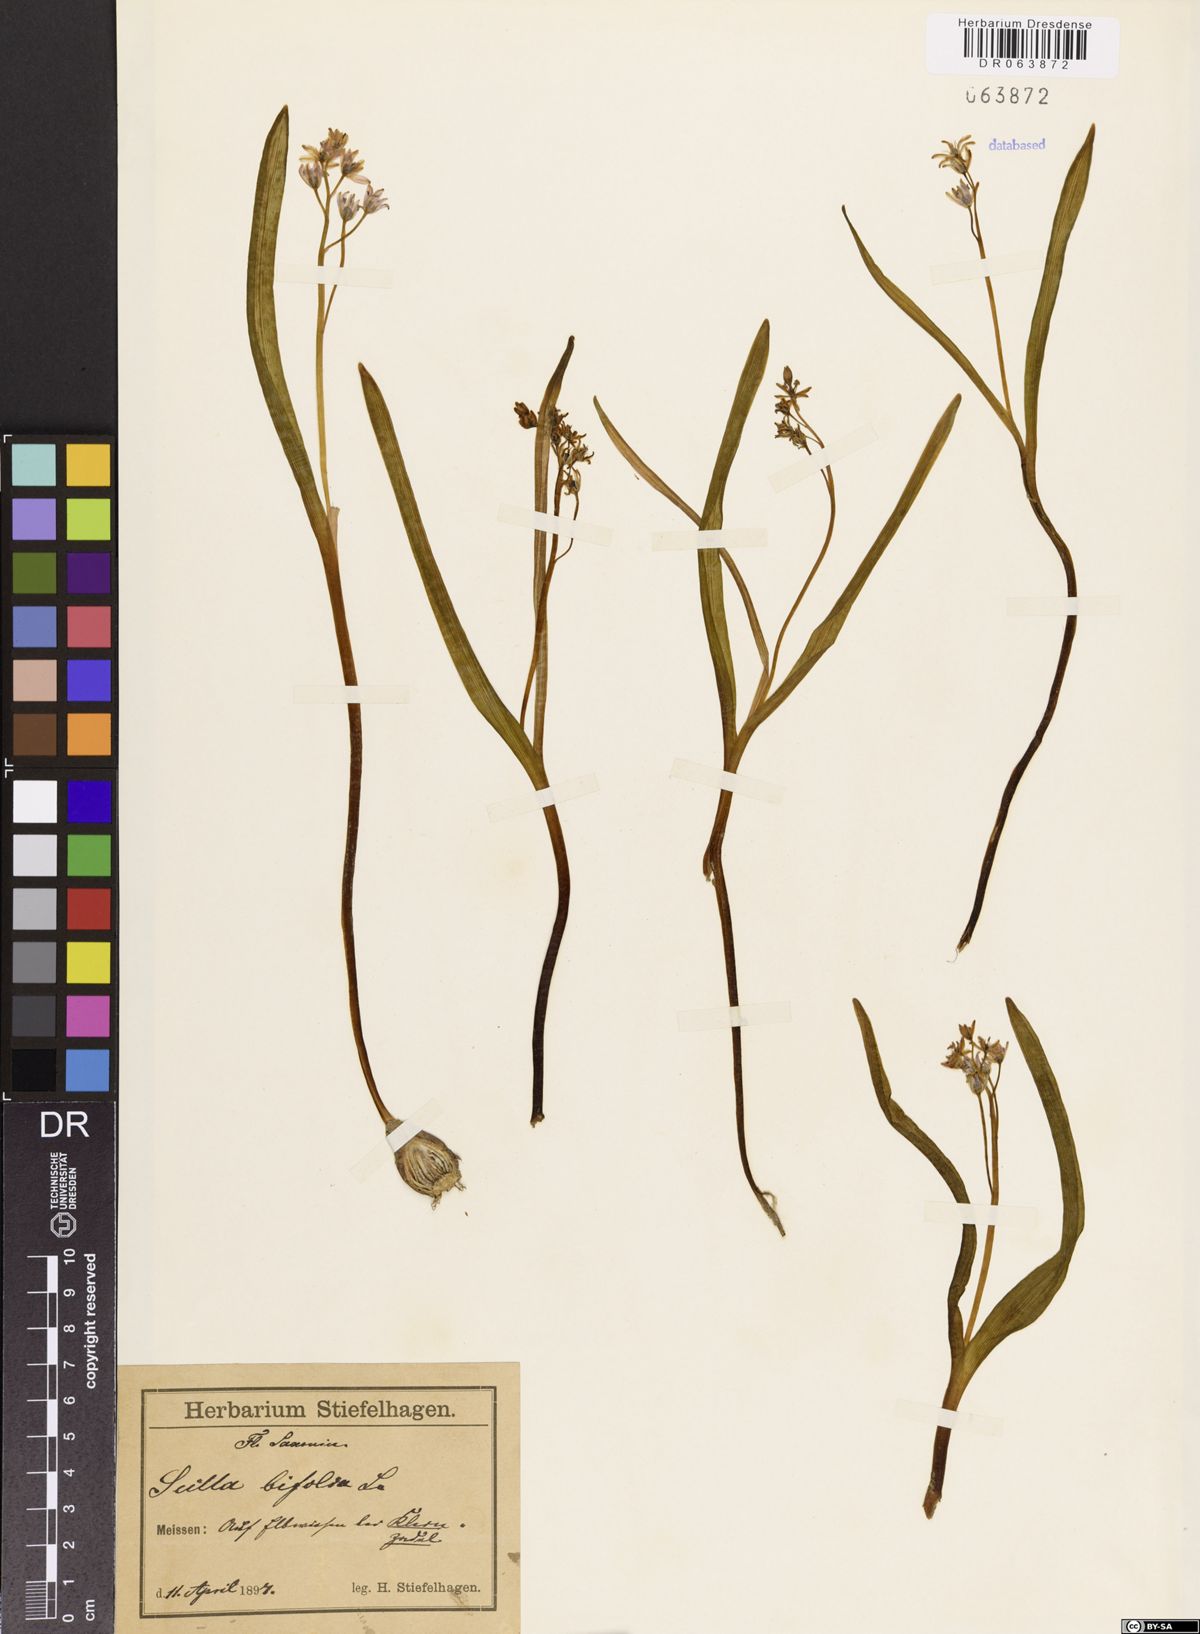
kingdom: Plantae
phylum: Tracheophyta
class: Liliopsida
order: Asparagales
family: Asparagaceae
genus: Scilla
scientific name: Scilla bifolia
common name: Alpine squill
